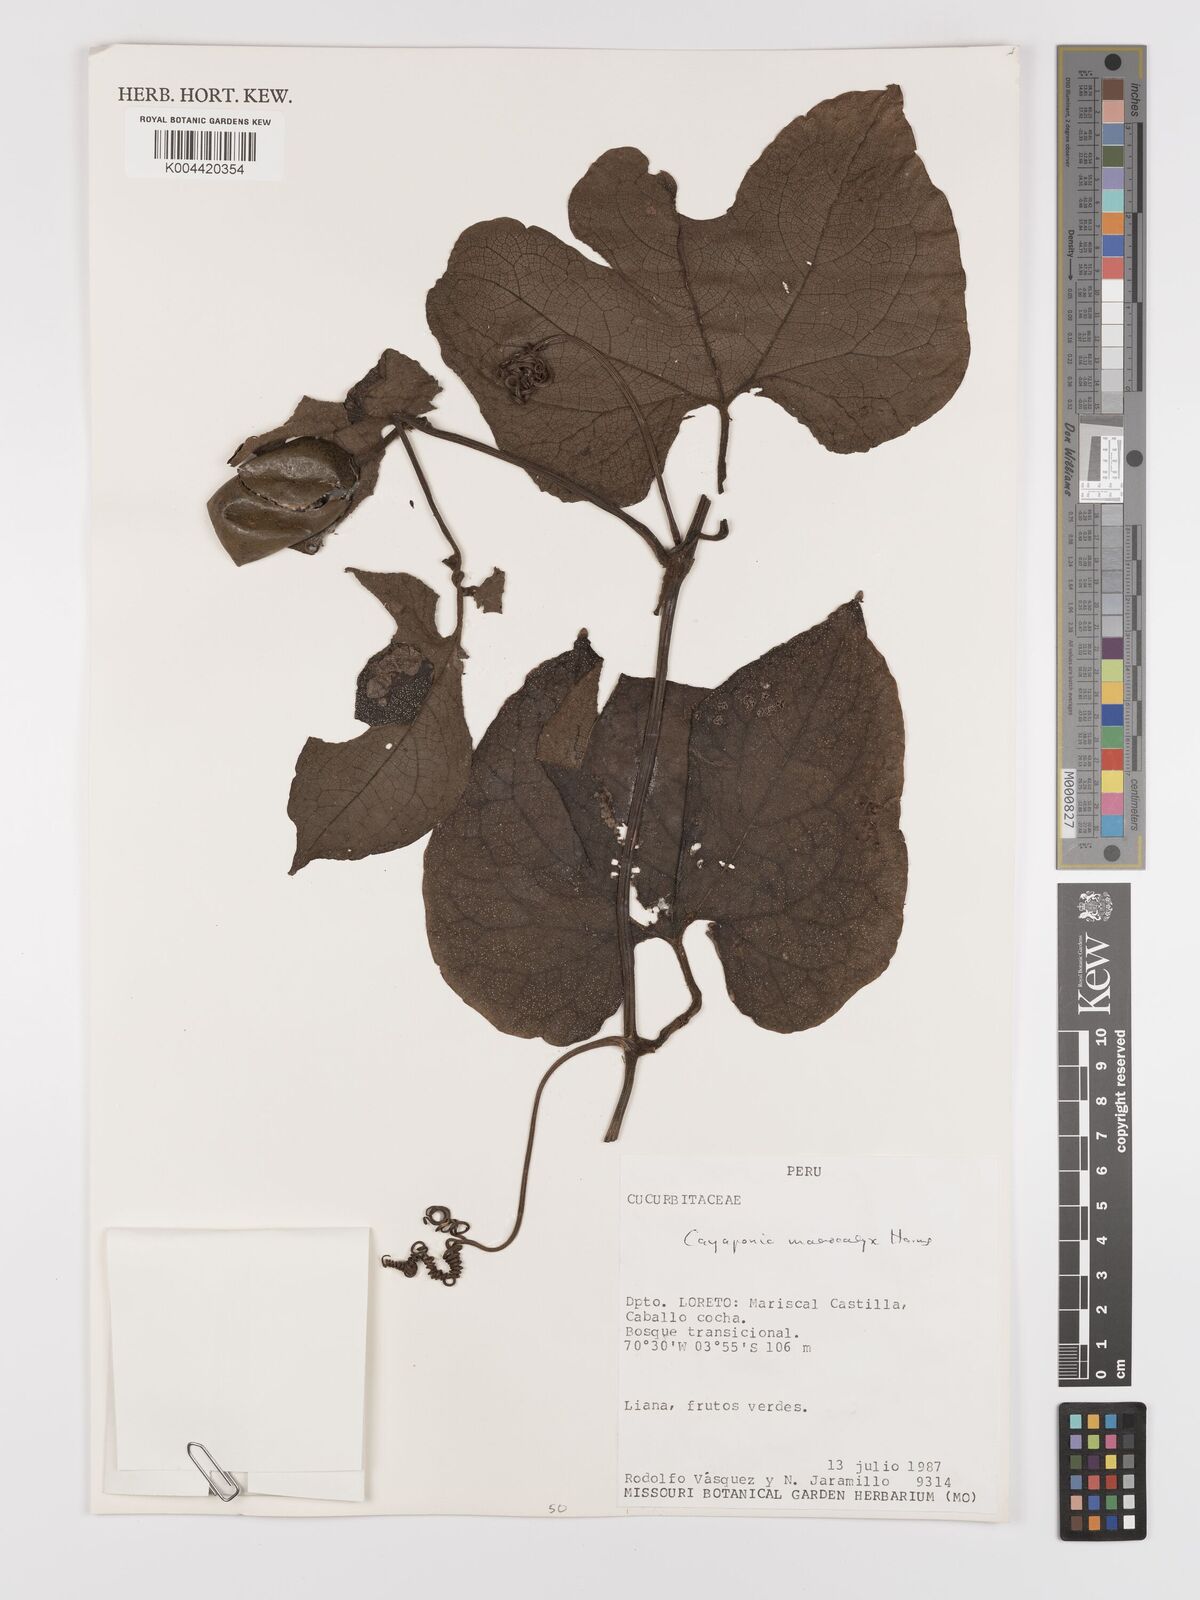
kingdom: Plantae
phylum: Tracheophyta
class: Magnoliopsida
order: Cucurbitales
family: Cucurbitaceae
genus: Cayaponia
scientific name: Cayaponia macrocalyx
